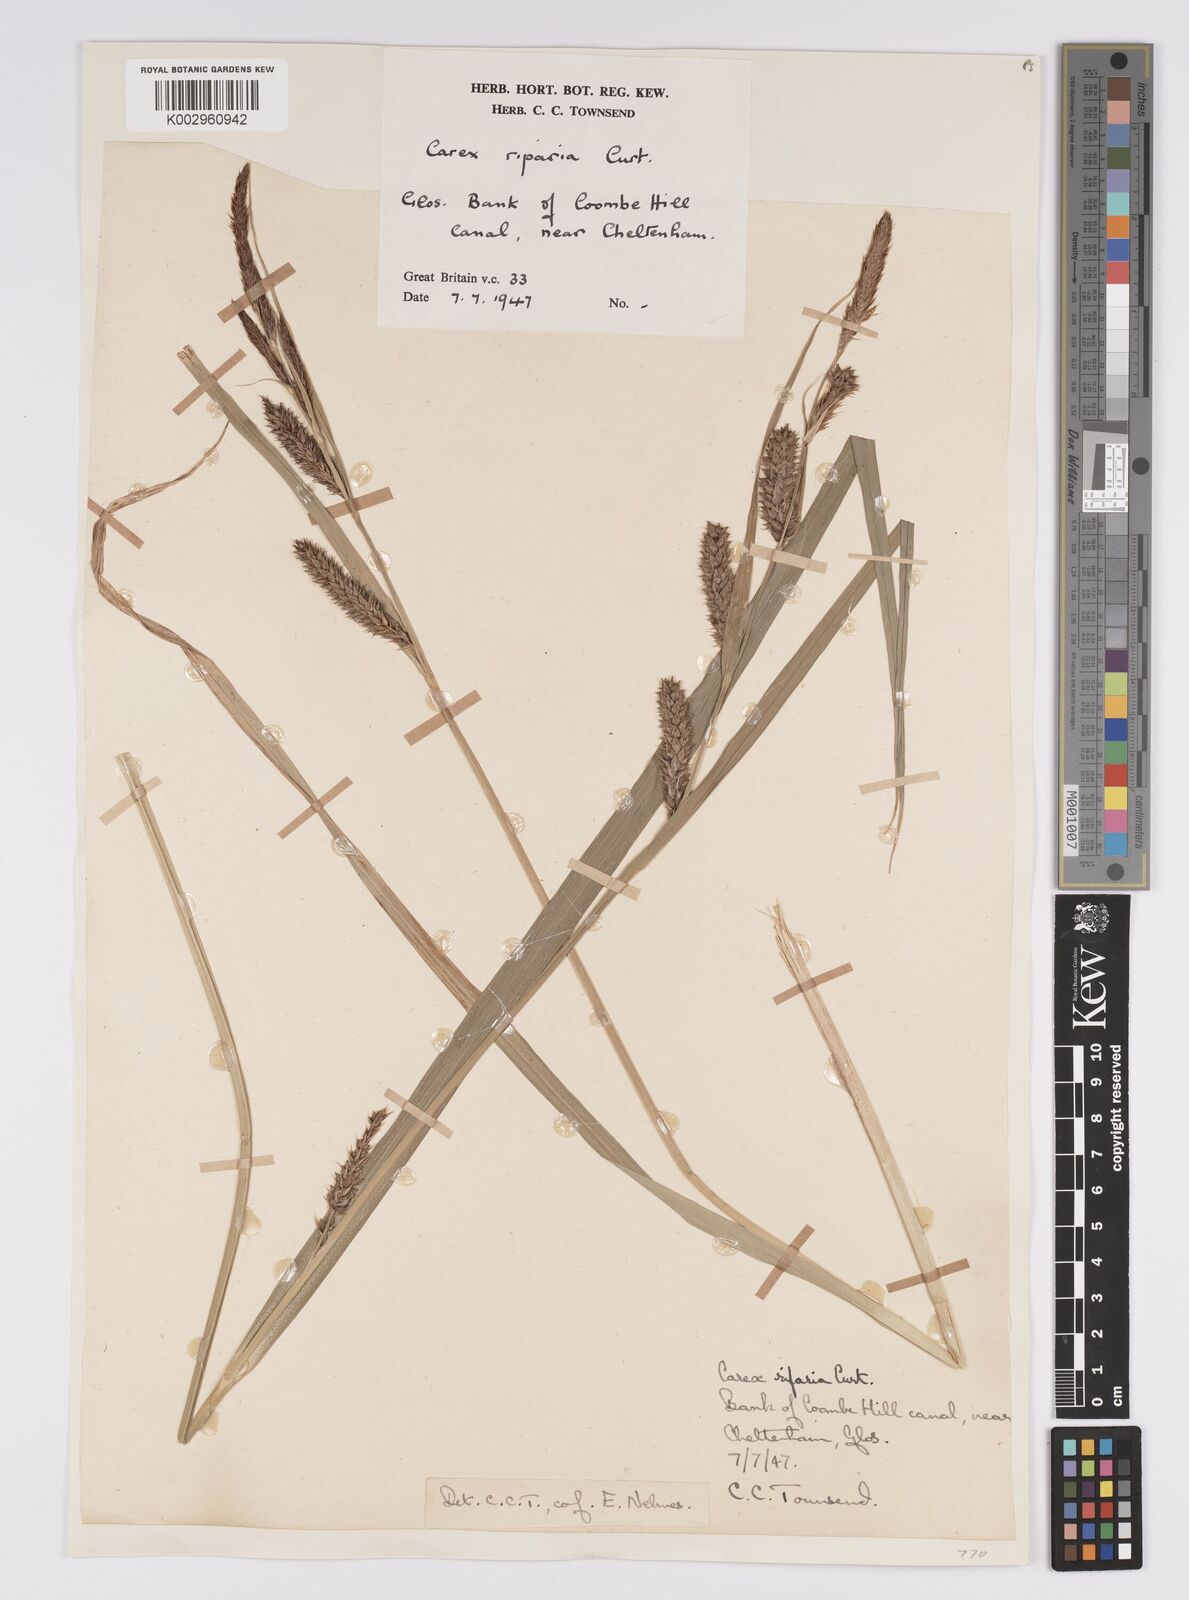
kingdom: Plantae
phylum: Tracheophyta
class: Liliopsida
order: Poales
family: Cyperaceae
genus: Carex
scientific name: Carex riparia
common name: Greater pond-sedge
